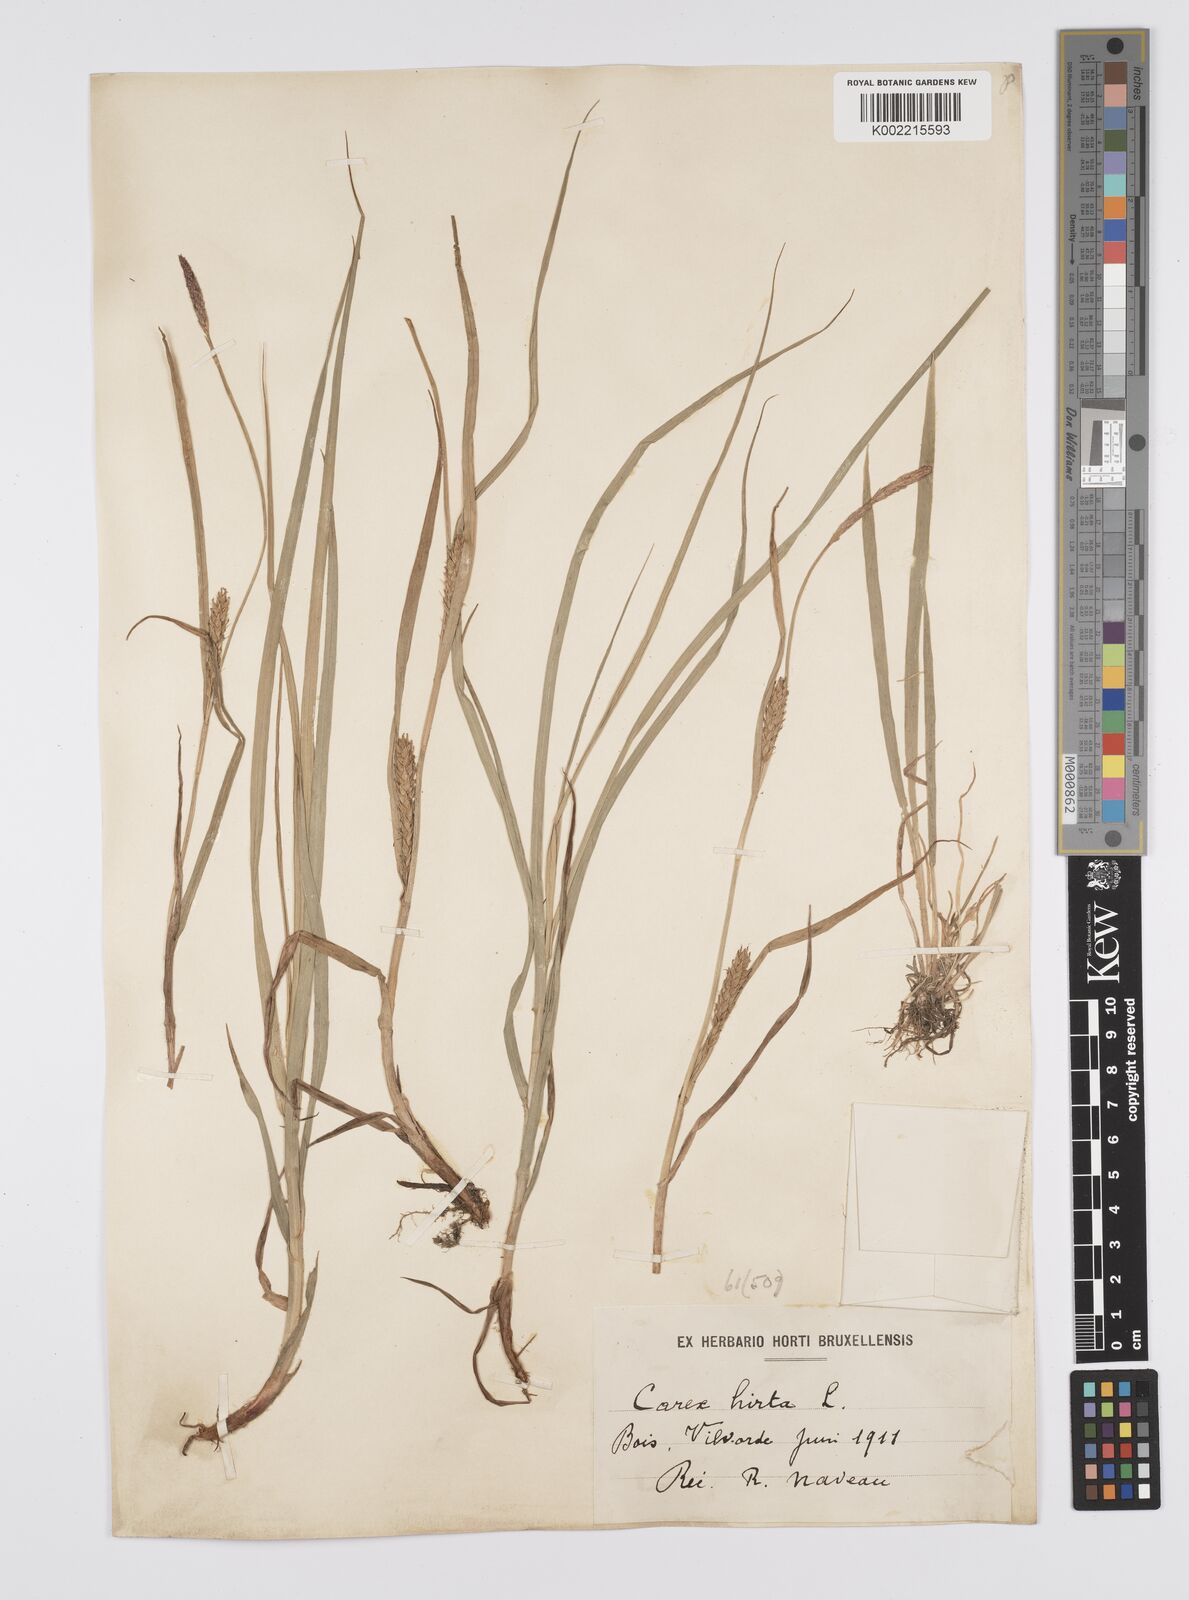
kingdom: Plantae
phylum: Tracheophyta
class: Liliopsida
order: Poales
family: Cyperaceae
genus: Carex
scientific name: Carex hirta
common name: Hairy sedge
